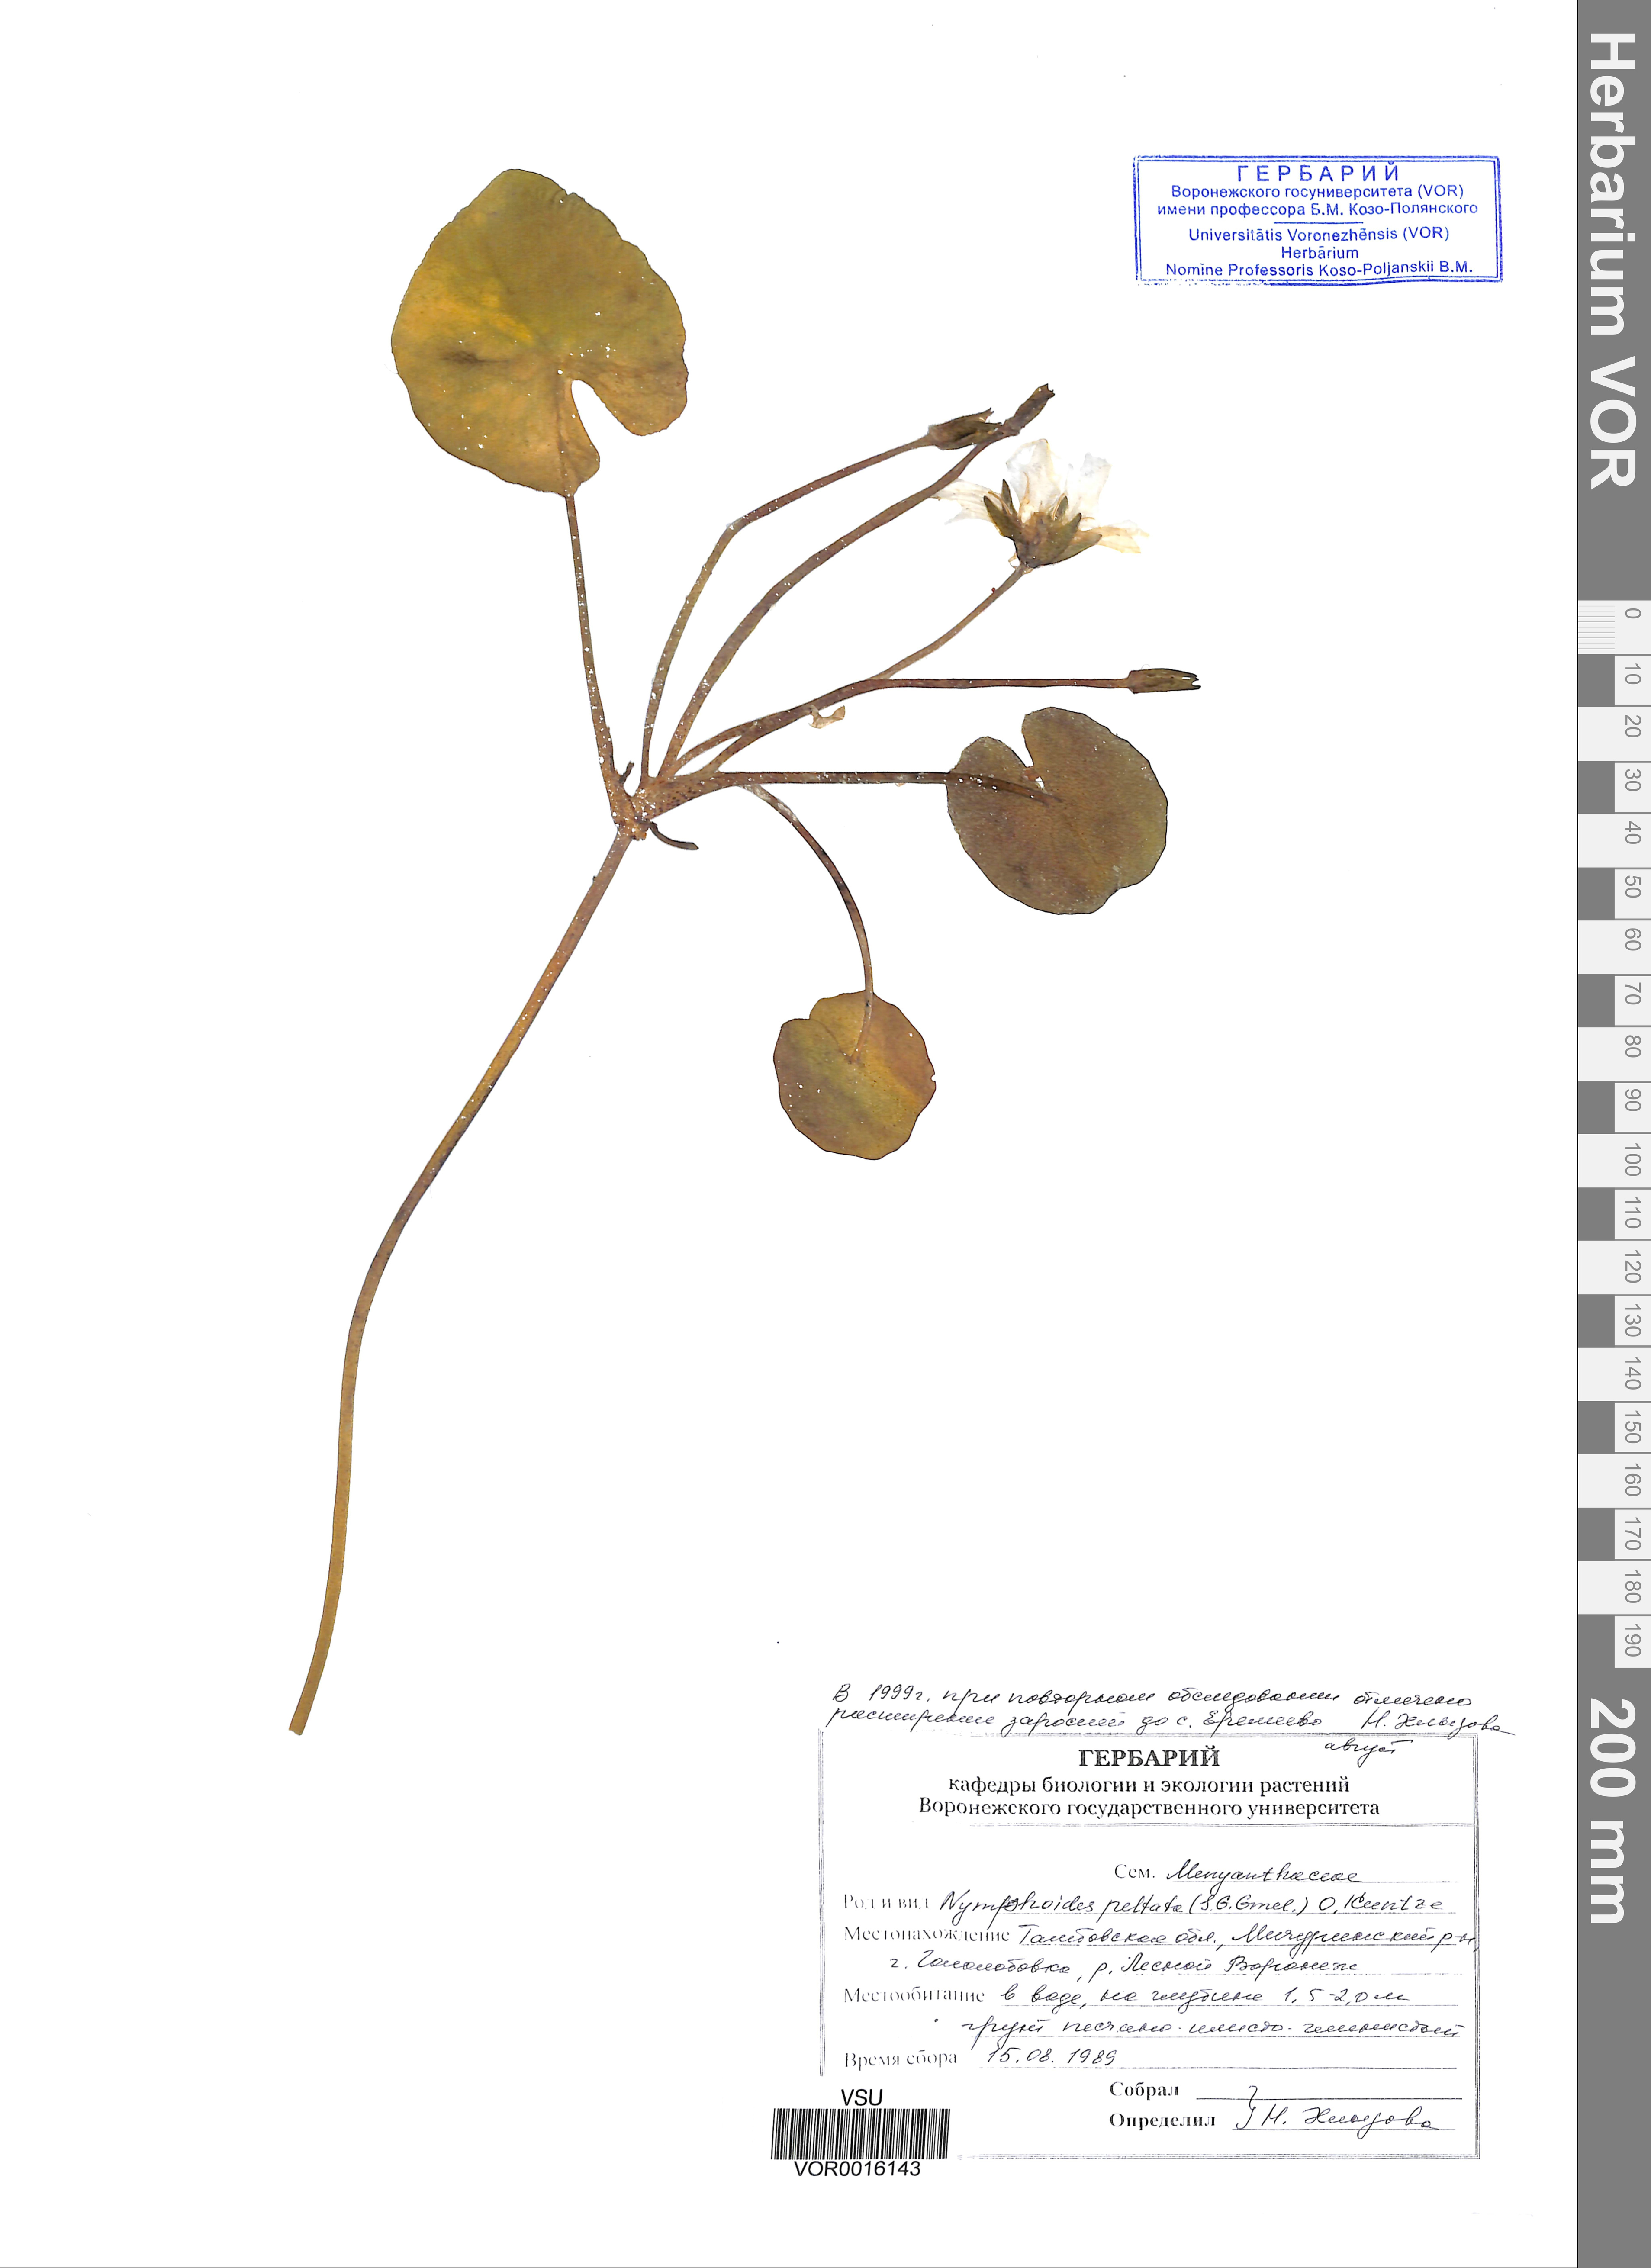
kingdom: Plantae
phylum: Tracheophyta
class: Magnoliopsida
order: Asterales
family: Menyanthaceae
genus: Nymphoides
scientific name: Nymphoides peltata
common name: Fringed water-lily
